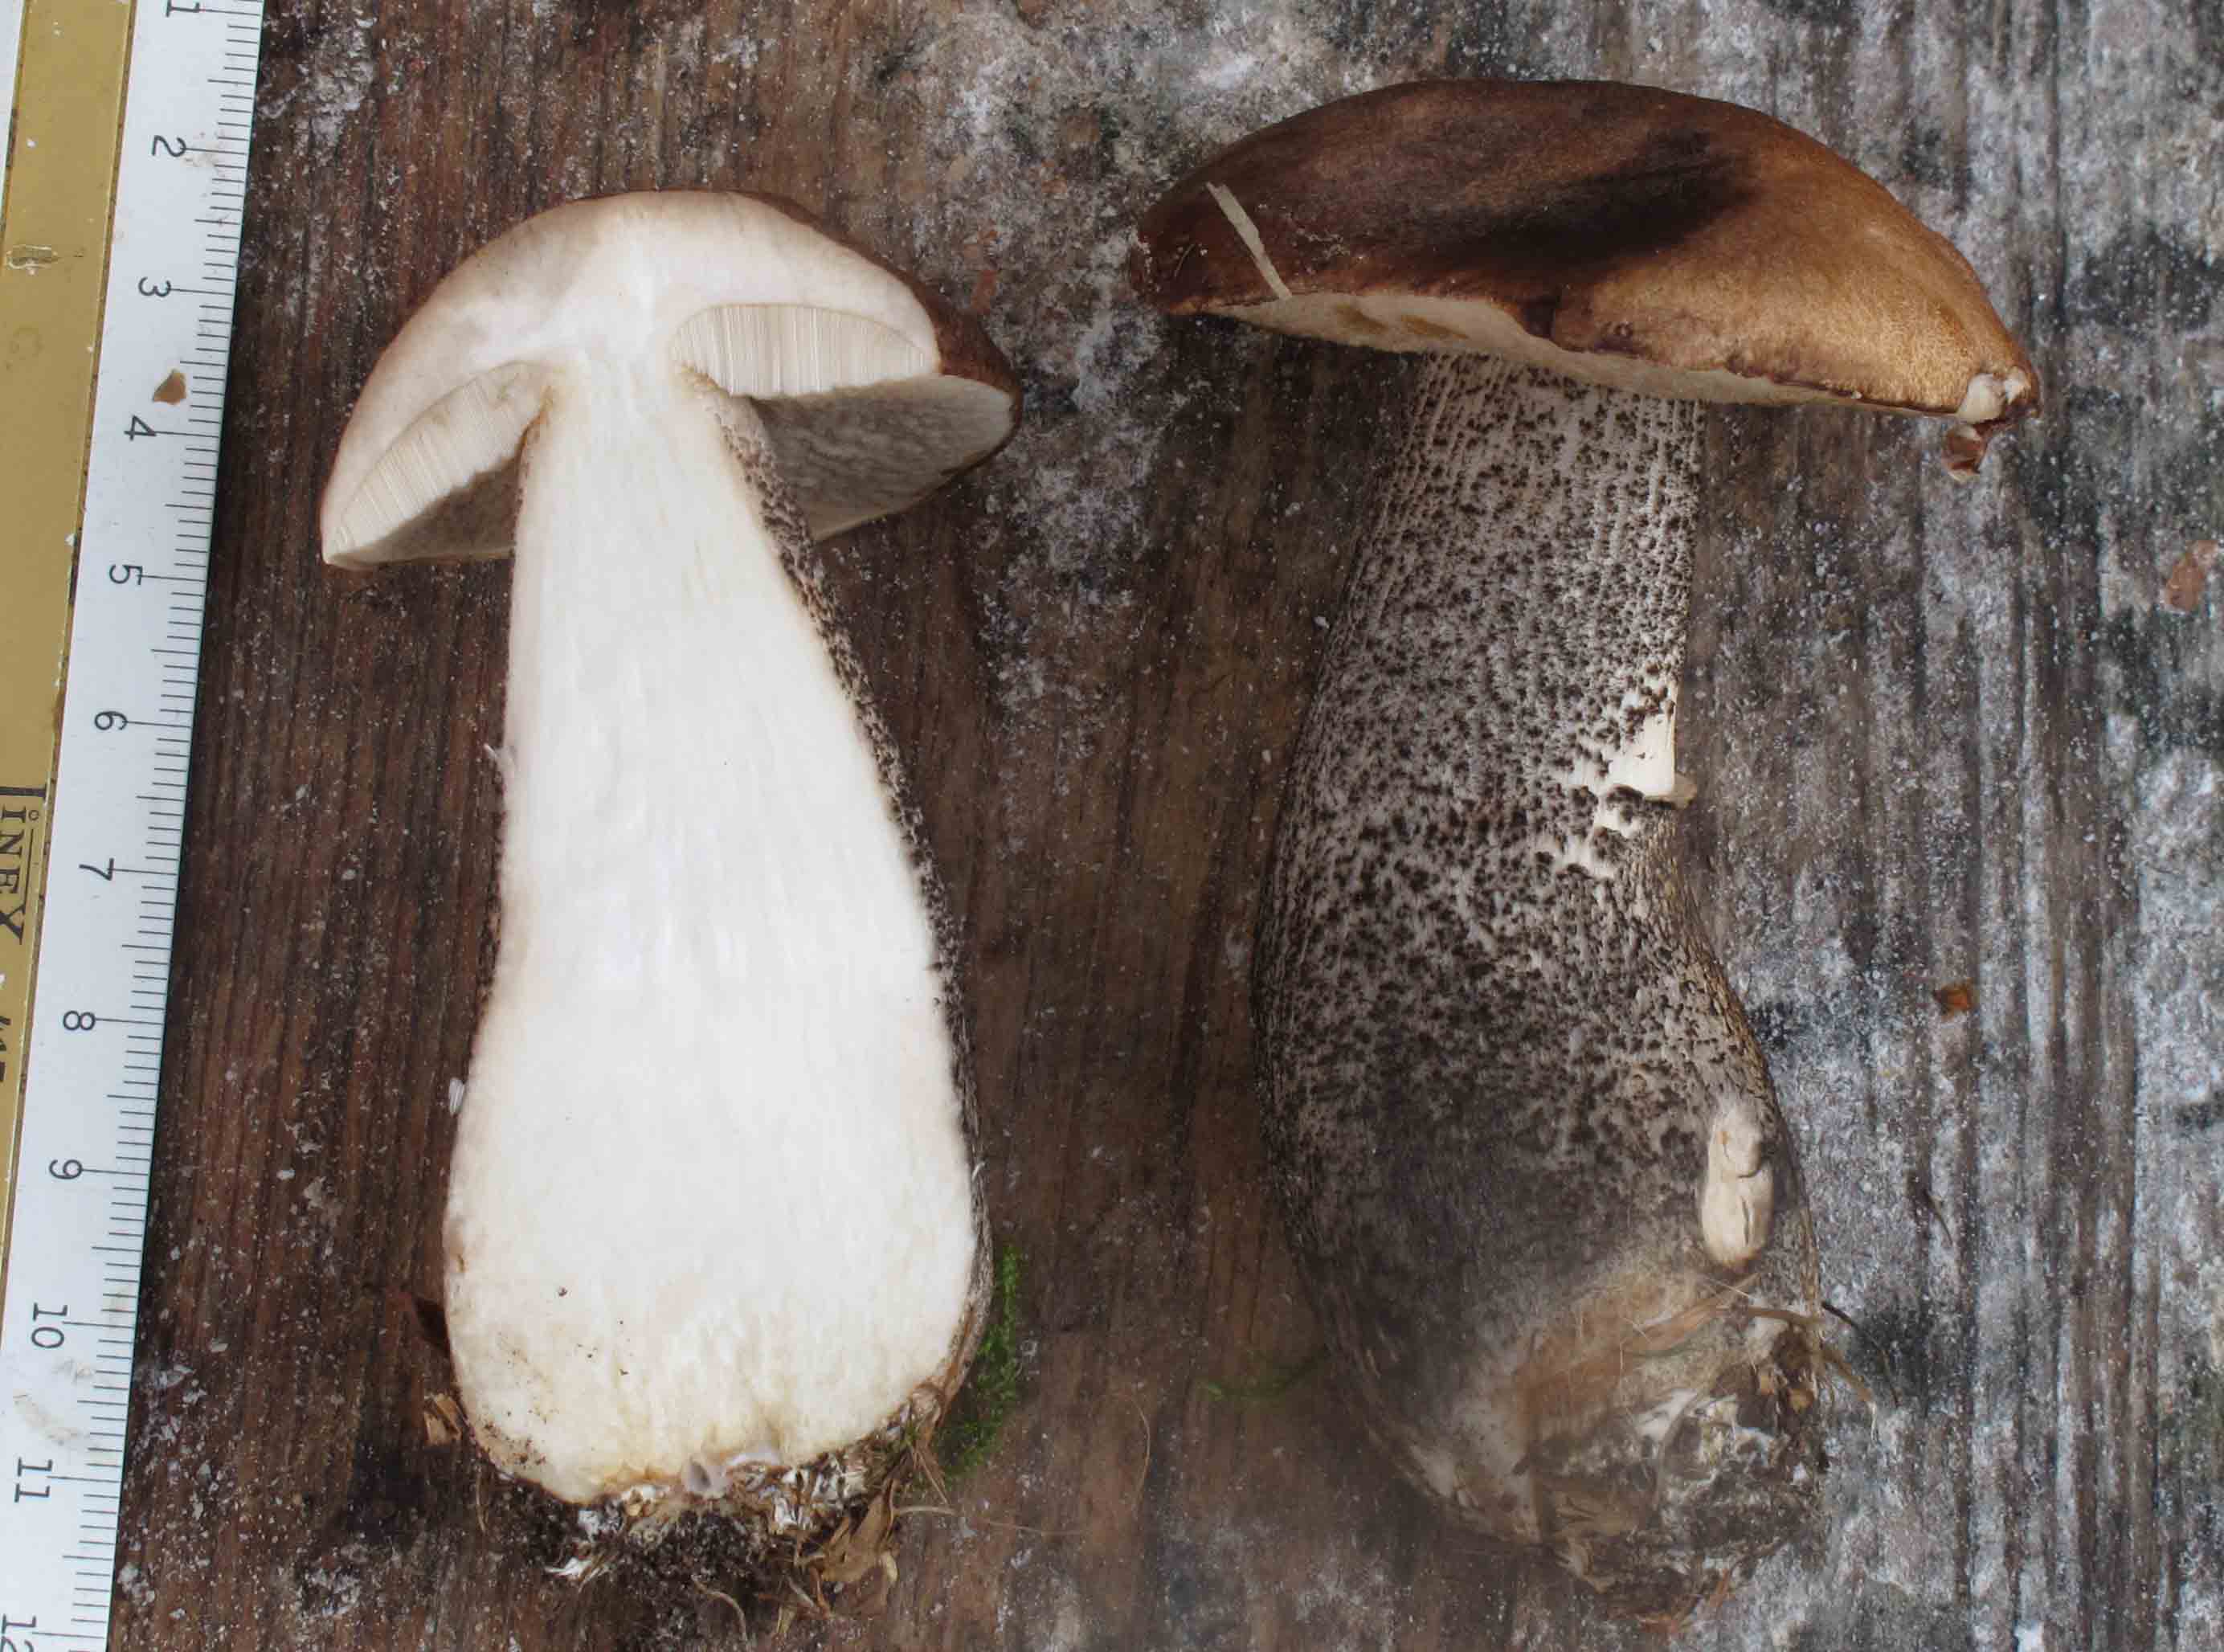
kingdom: Fungi
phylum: Basidiomycota
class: Agaricomycetes
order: Boletales
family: Boletaceae
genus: Leccinum
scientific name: Leccinum scabrum
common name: brun skælrørhat
